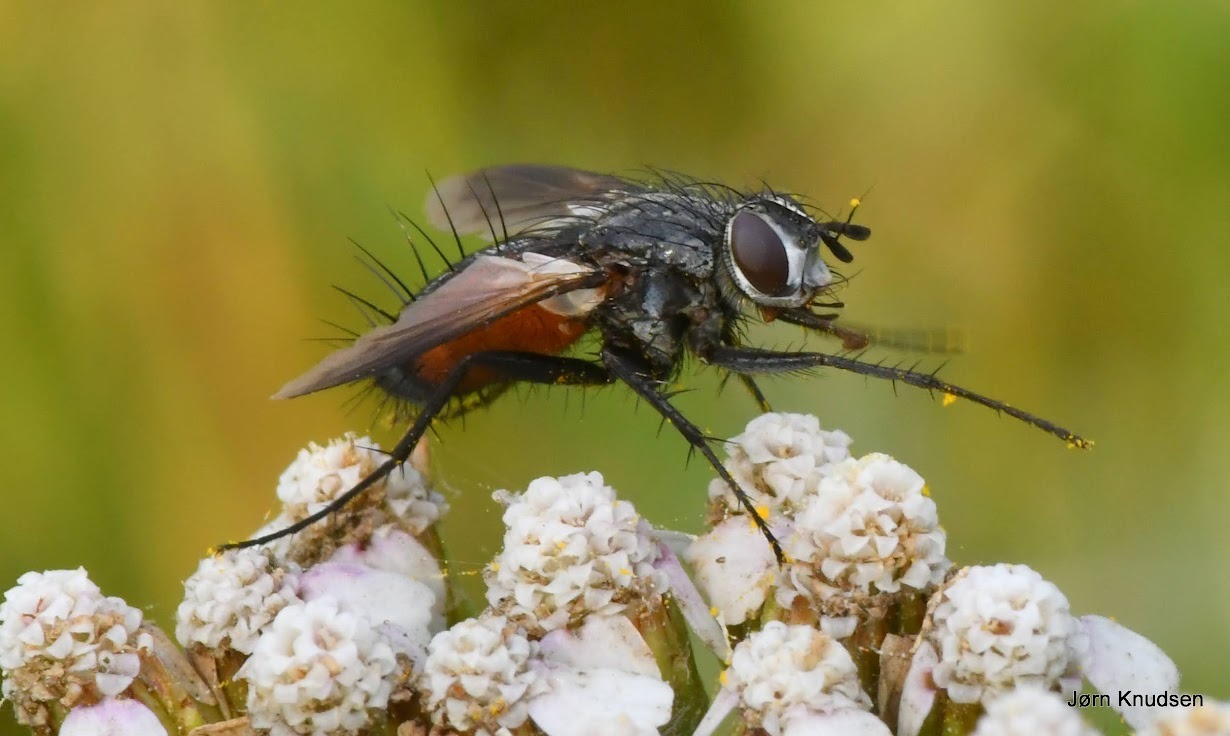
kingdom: Animalia
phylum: Arthropoda
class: Insecta
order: Diptera
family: Tachinidae
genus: Eriothrix
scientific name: Eriothrix rufomaculatus
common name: Rød snylteflue
